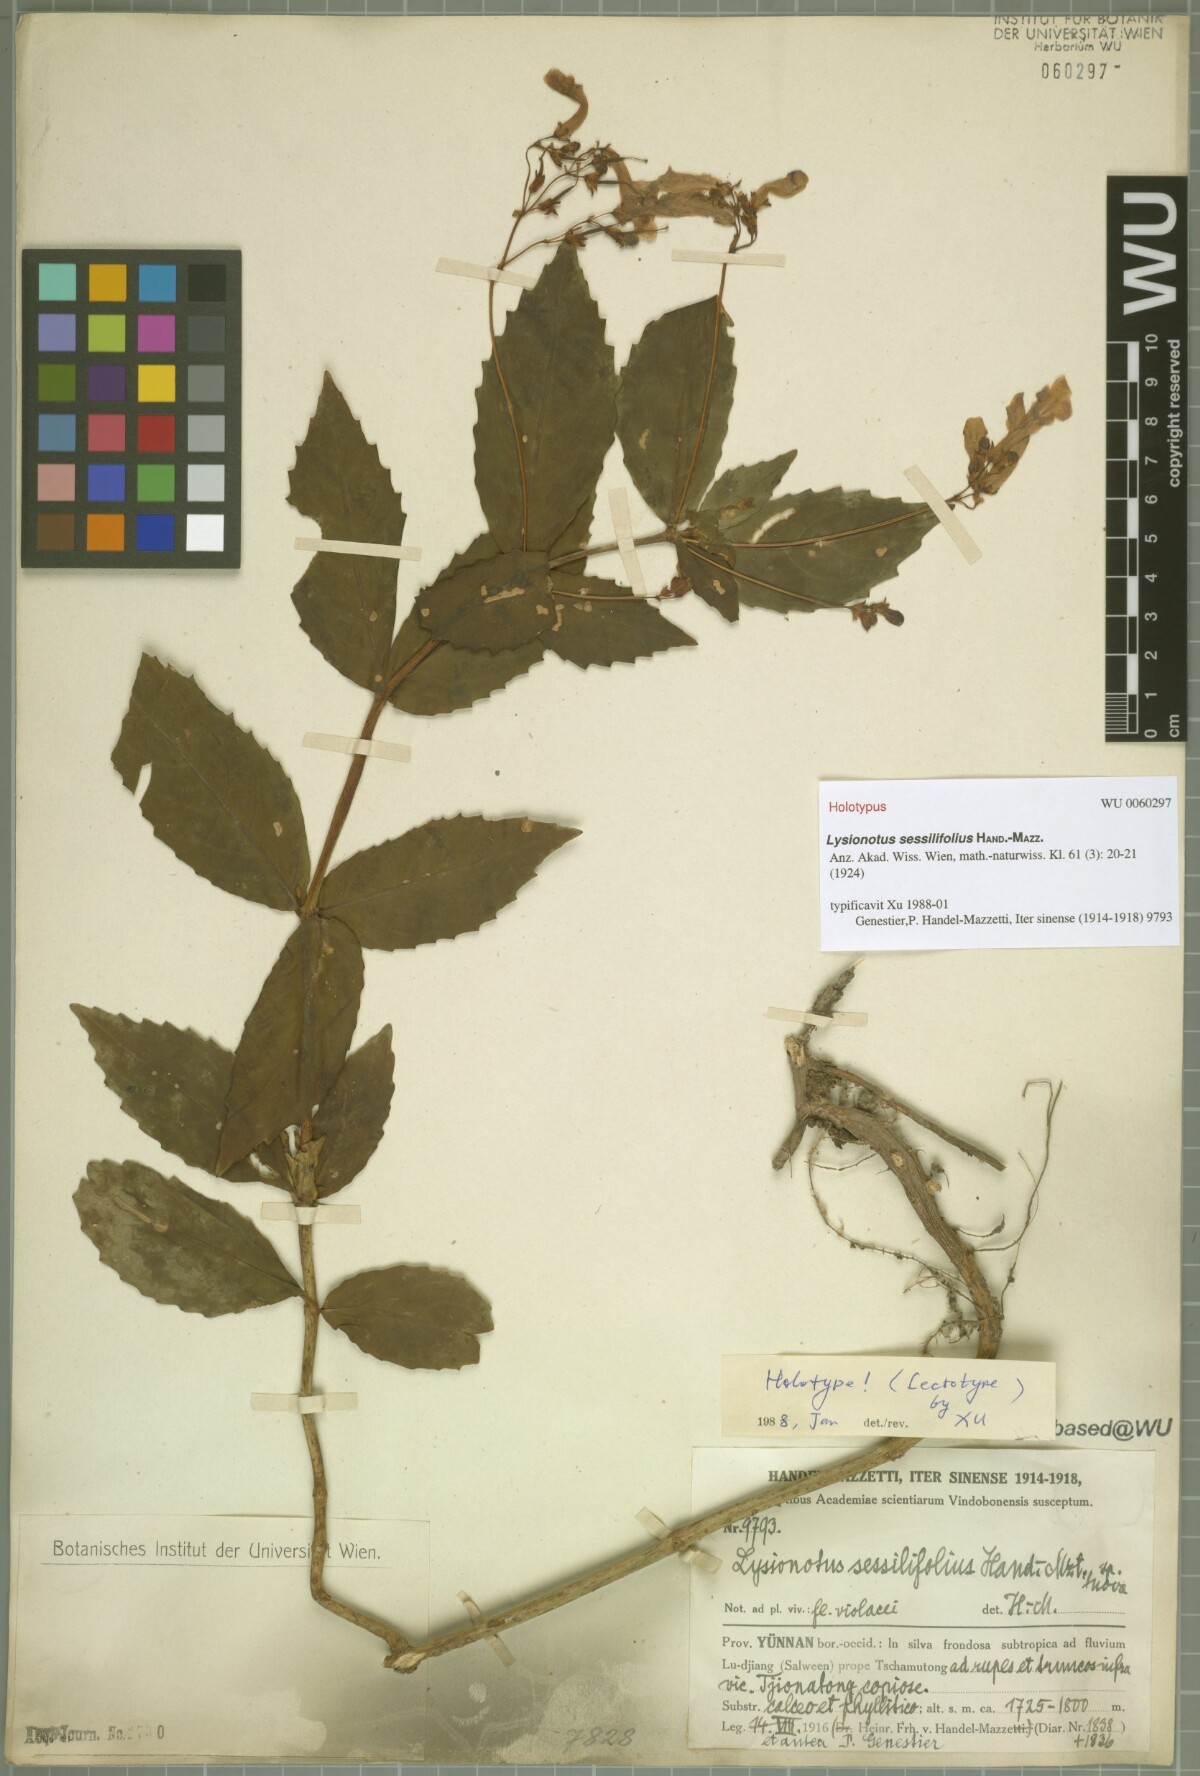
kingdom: Plantae
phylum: Tracheophyta
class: Magnoliopsida
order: Lamiales
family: Gesneriaceae
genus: Lysionotus
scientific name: Lysionotus sessilifolius
